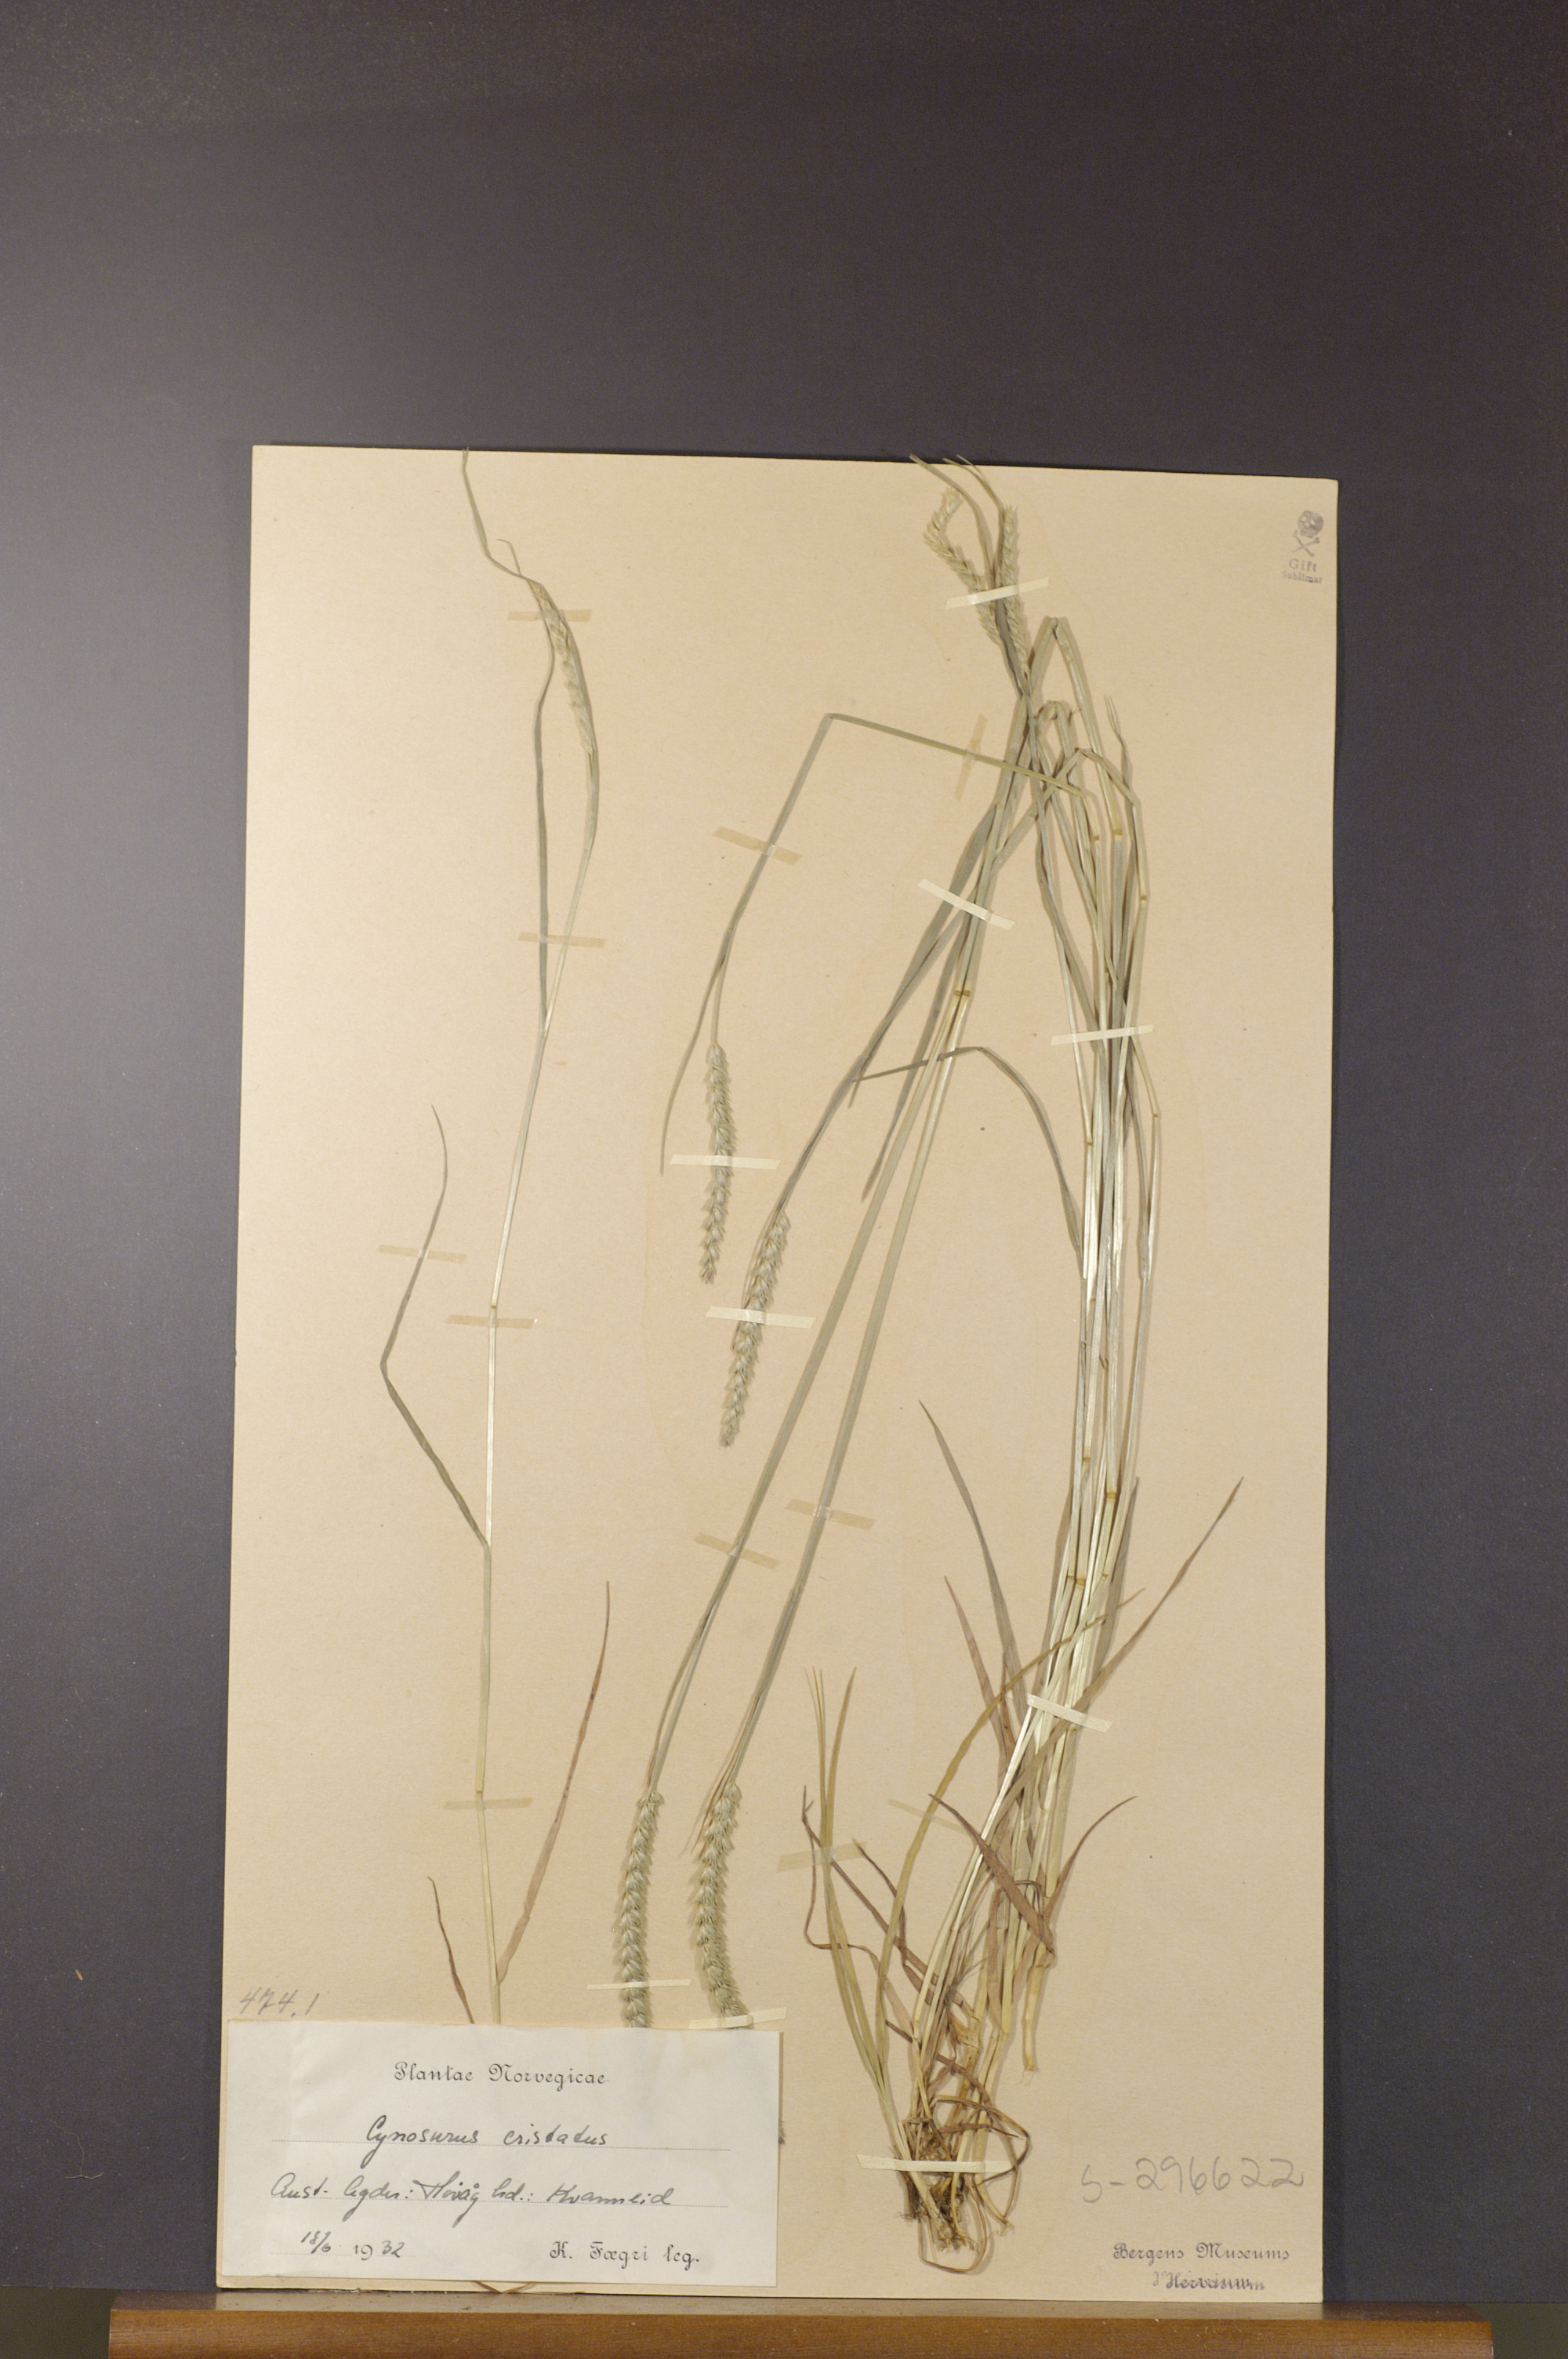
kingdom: Plantae
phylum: Tracheophyta
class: Liliopsida
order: Poales
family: Poaceae
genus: Cynosurus
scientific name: Cynosurus cristatus
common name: Crested dog's-tail
